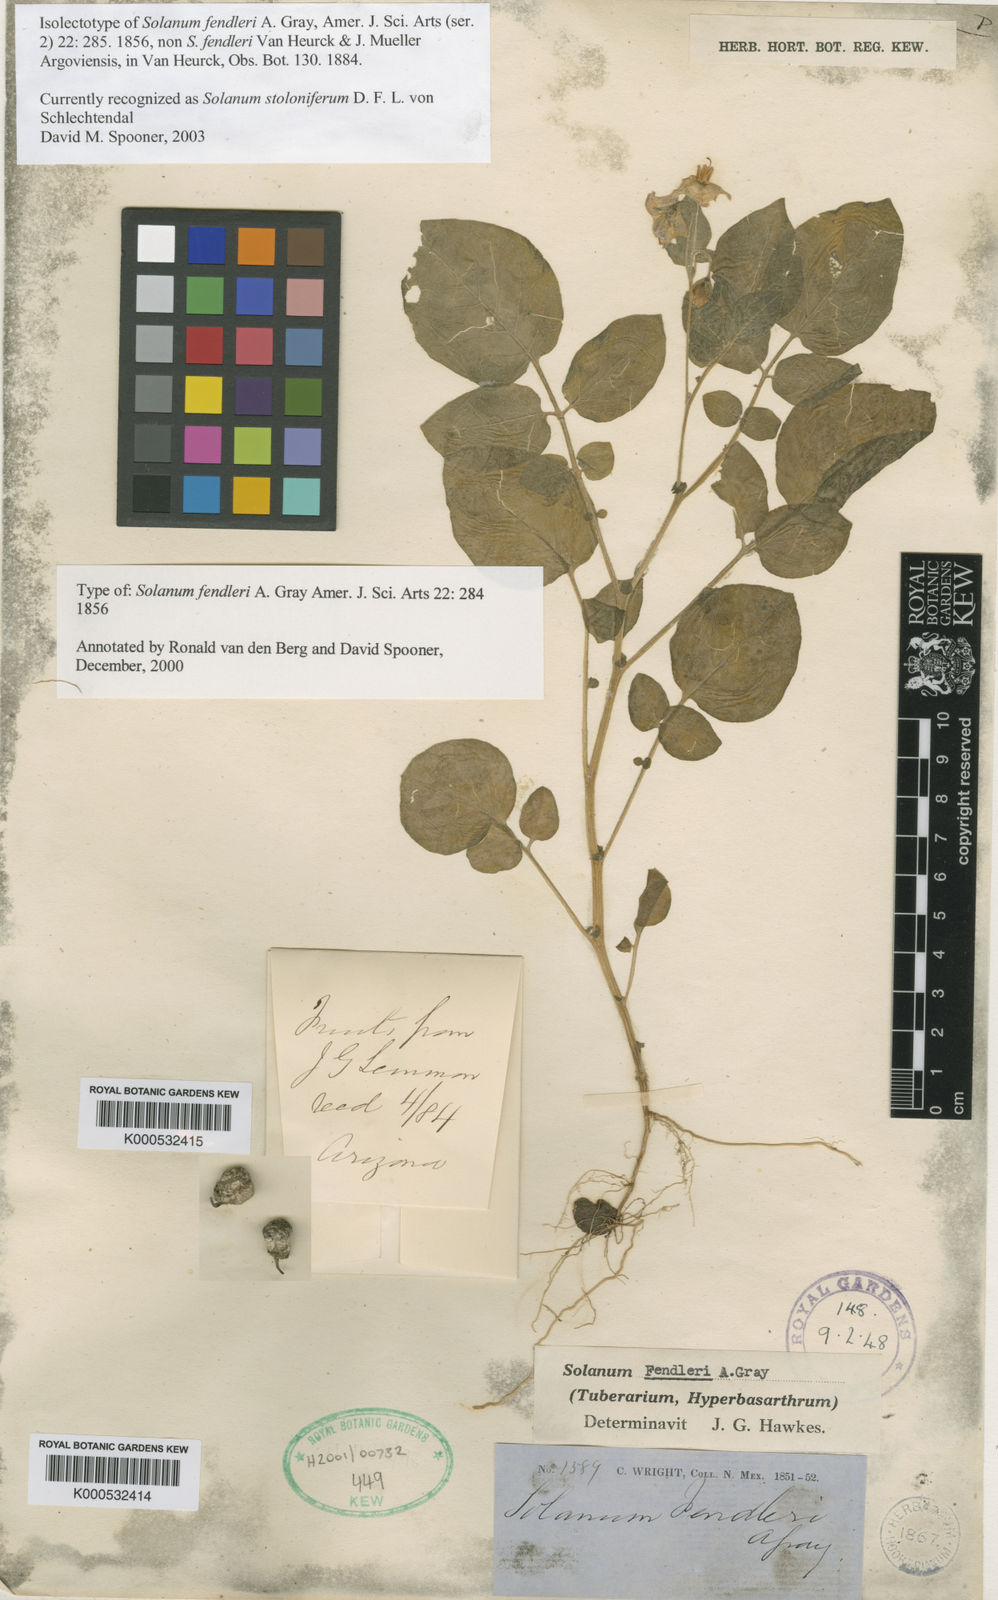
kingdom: Plantae
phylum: Tracheophyta
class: Magnoliopsida
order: Solanales
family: Solanaceae
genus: Solanum
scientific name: Solanum stoloniferum
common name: Fendler's nighshade
